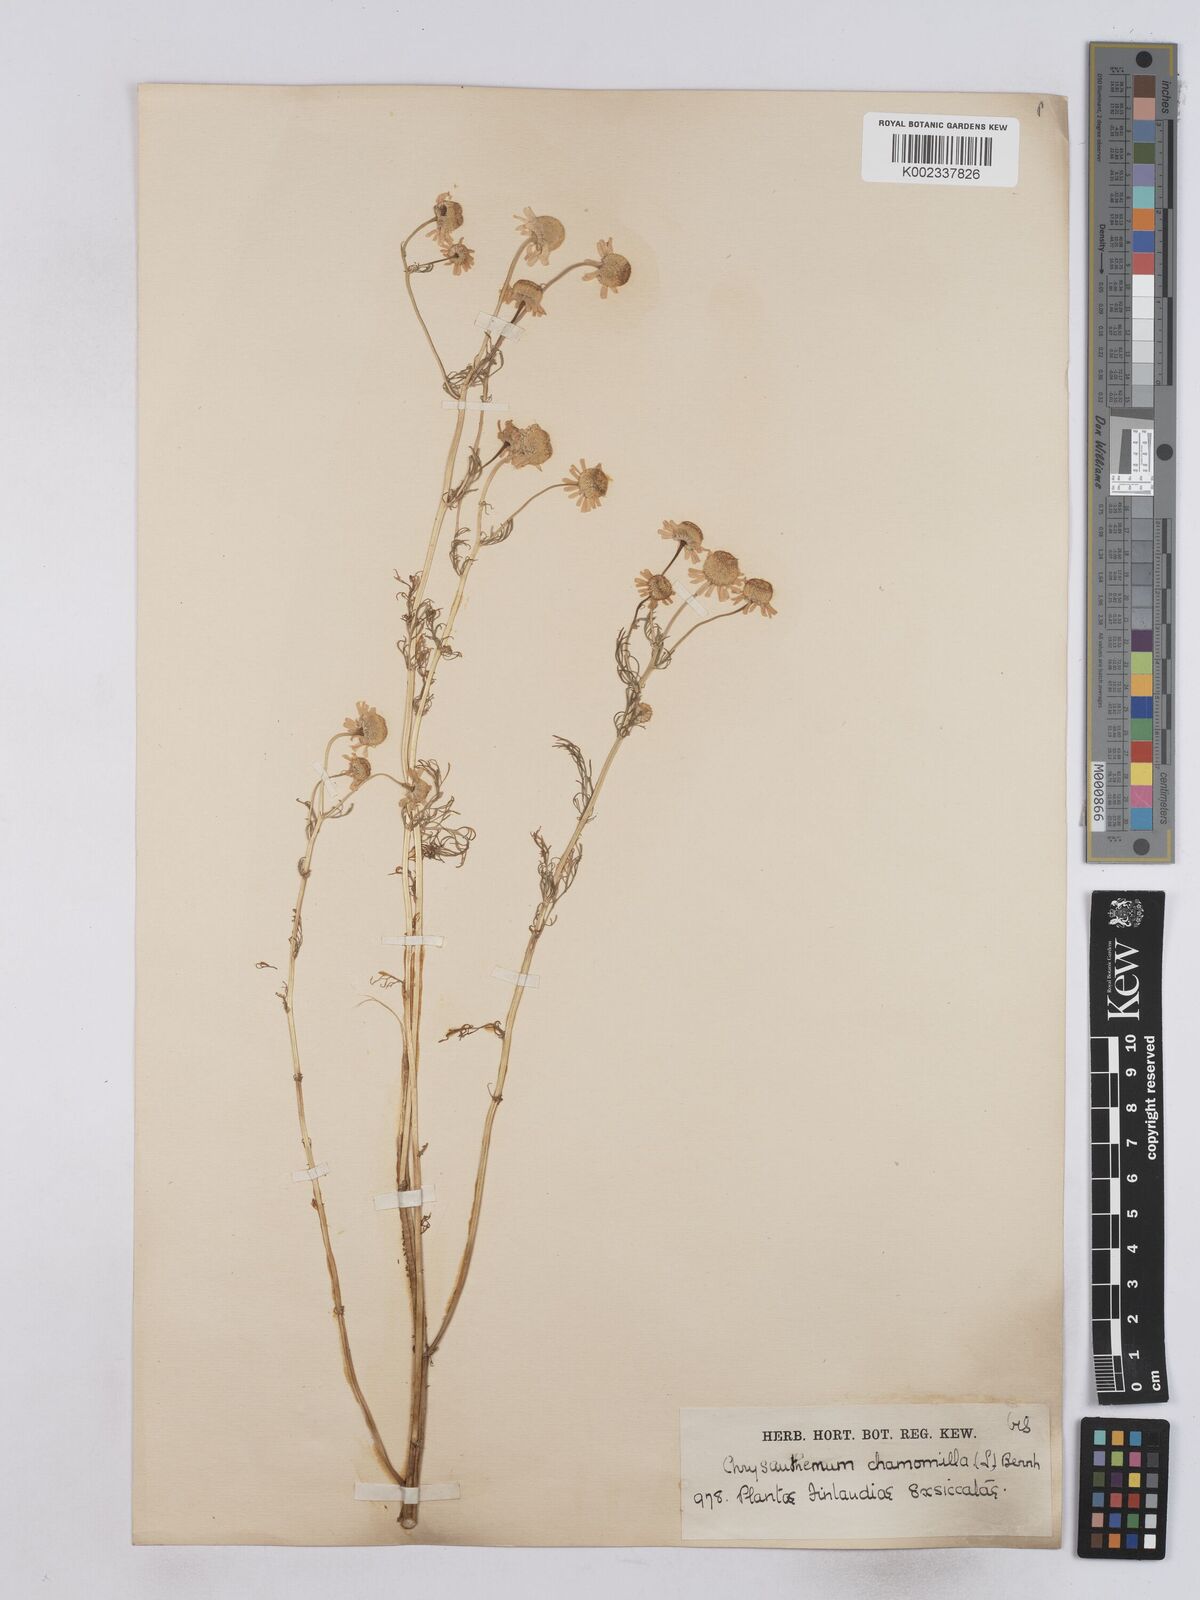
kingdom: Plantae
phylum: Tracheophyta
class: Magnoliopsida
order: Asterales
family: Asteraceae
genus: Matricaria
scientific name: Matricaria chamomilla
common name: Scented mayweed
